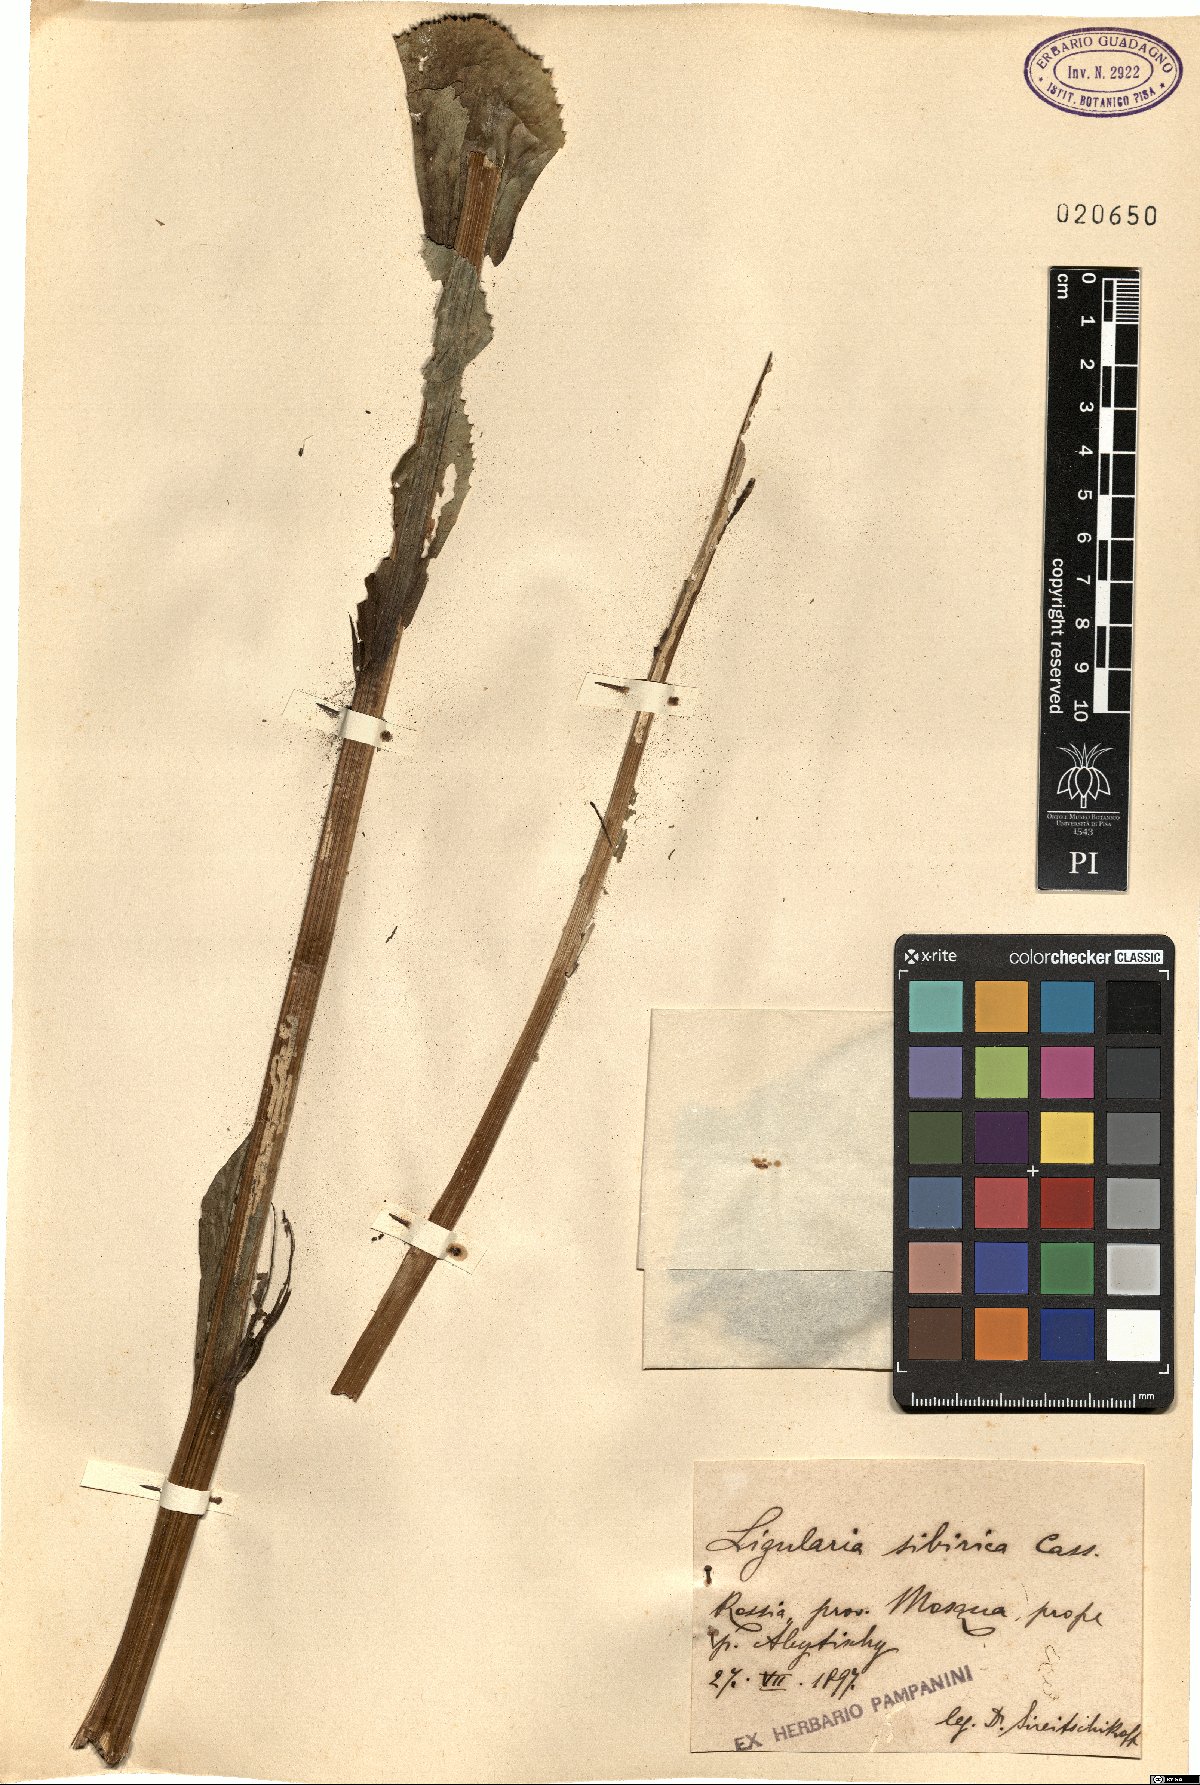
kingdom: Plantae
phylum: Tracheophyta
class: Magnoliopsida
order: Asterales
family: Asteraceae
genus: Ligularia
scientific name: Ligularia sibirica
